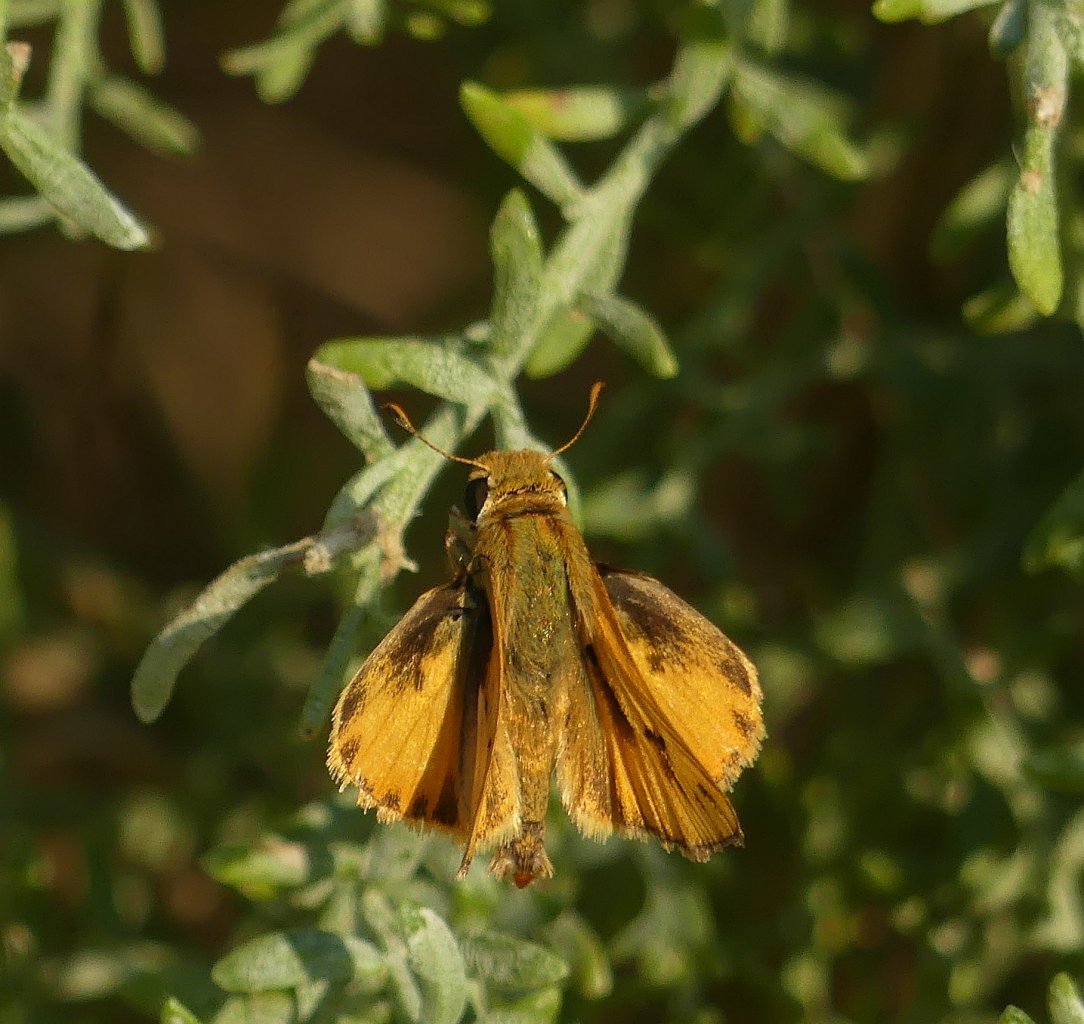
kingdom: Animalia
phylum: Arthropoda
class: Insecta
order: Lepidoptera
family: Hesperiidae
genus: Hylephila
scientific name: Hylephila phyleus
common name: Fiery Skipper
